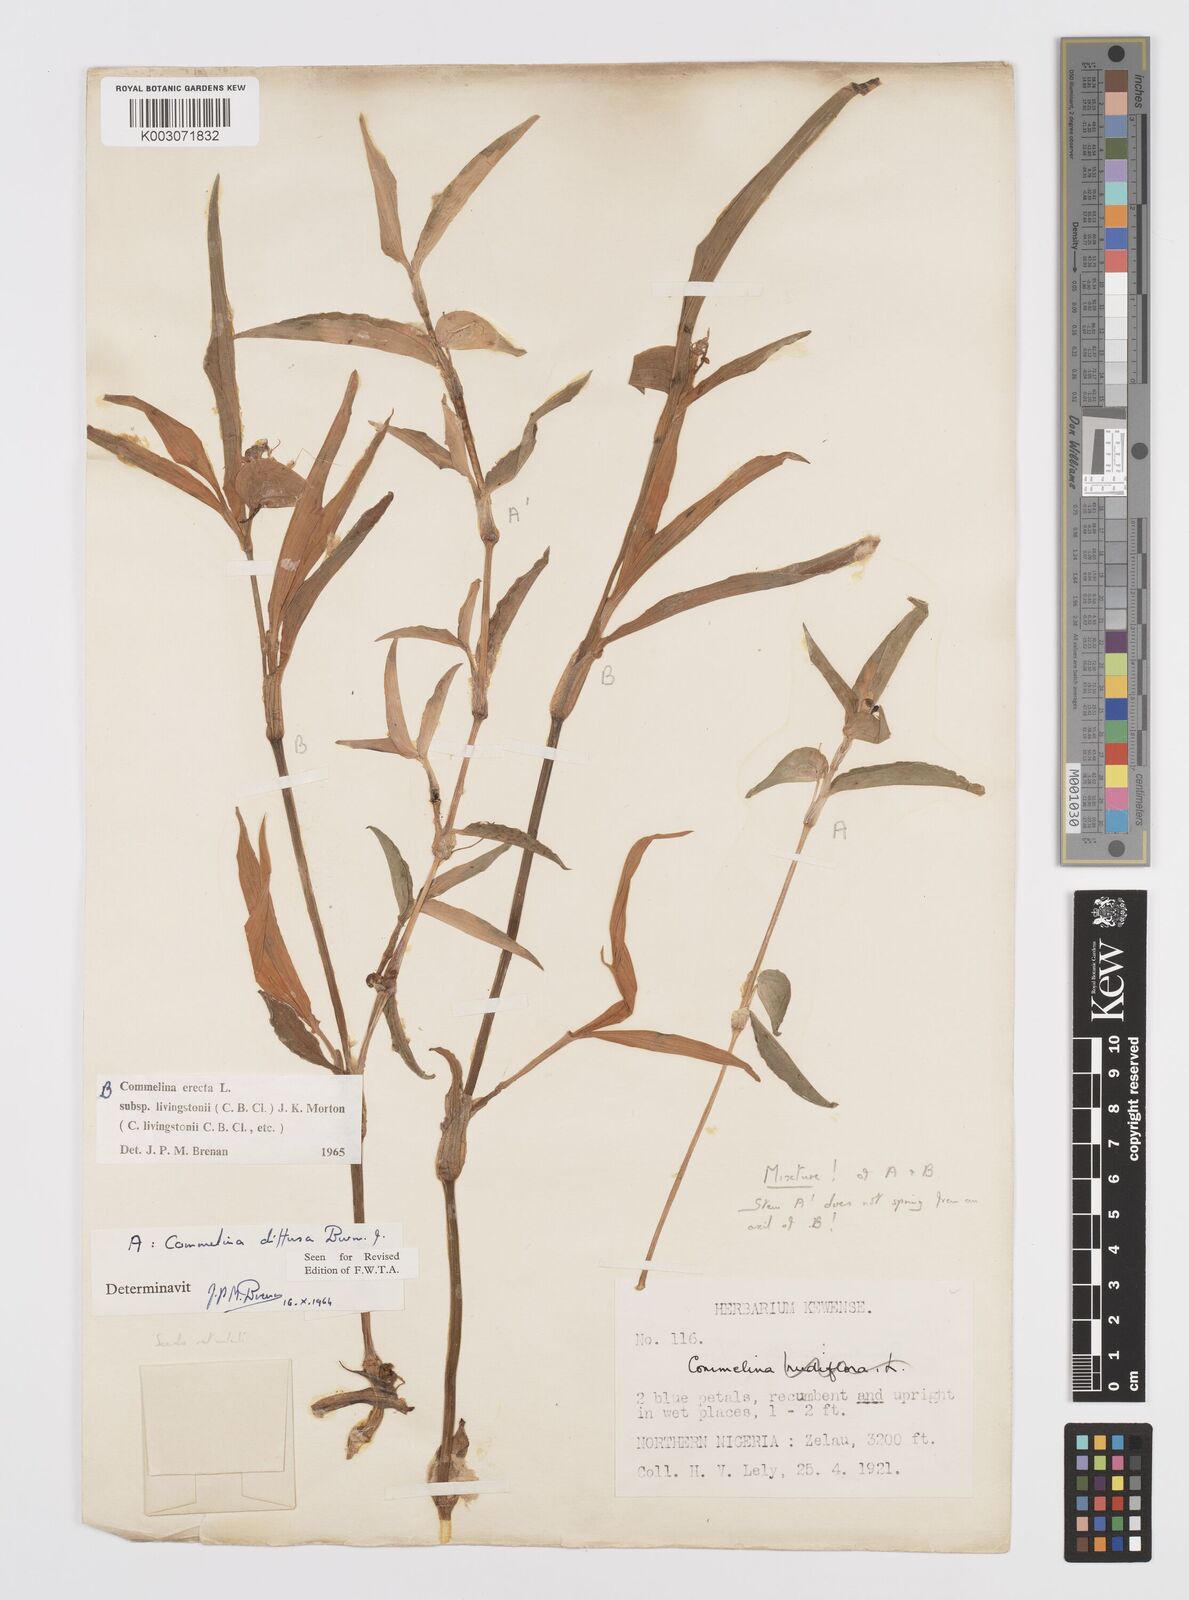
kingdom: Plantae
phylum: Tracheophyta
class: Liliopsida
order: Commelinales
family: Commelinaceae
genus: Commelina
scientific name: Commelina erecta
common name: Blousel blommetjie
